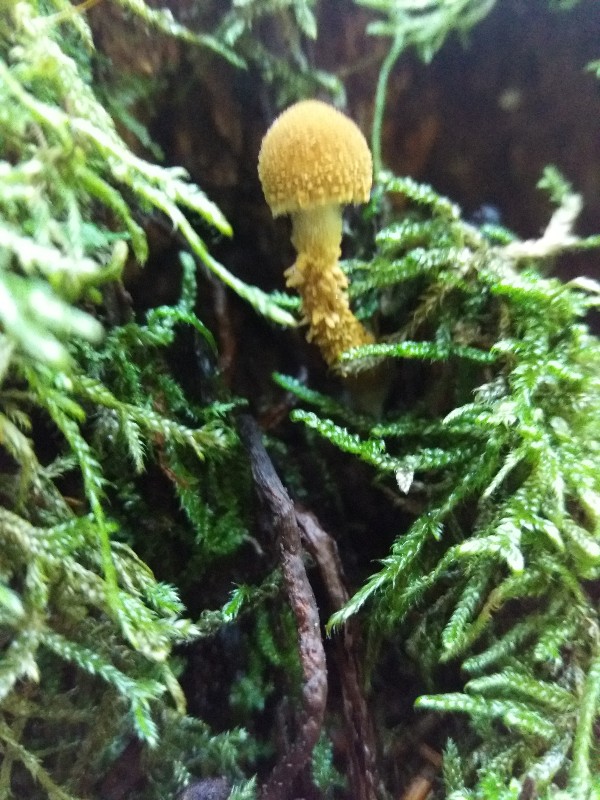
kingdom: Fungi
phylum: Basidiomycota
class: Agaricomycetes
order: Agaricales
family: Strophariaceae
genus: Pholiota
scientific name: Pholiota flammans
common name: flamme-skælhat
